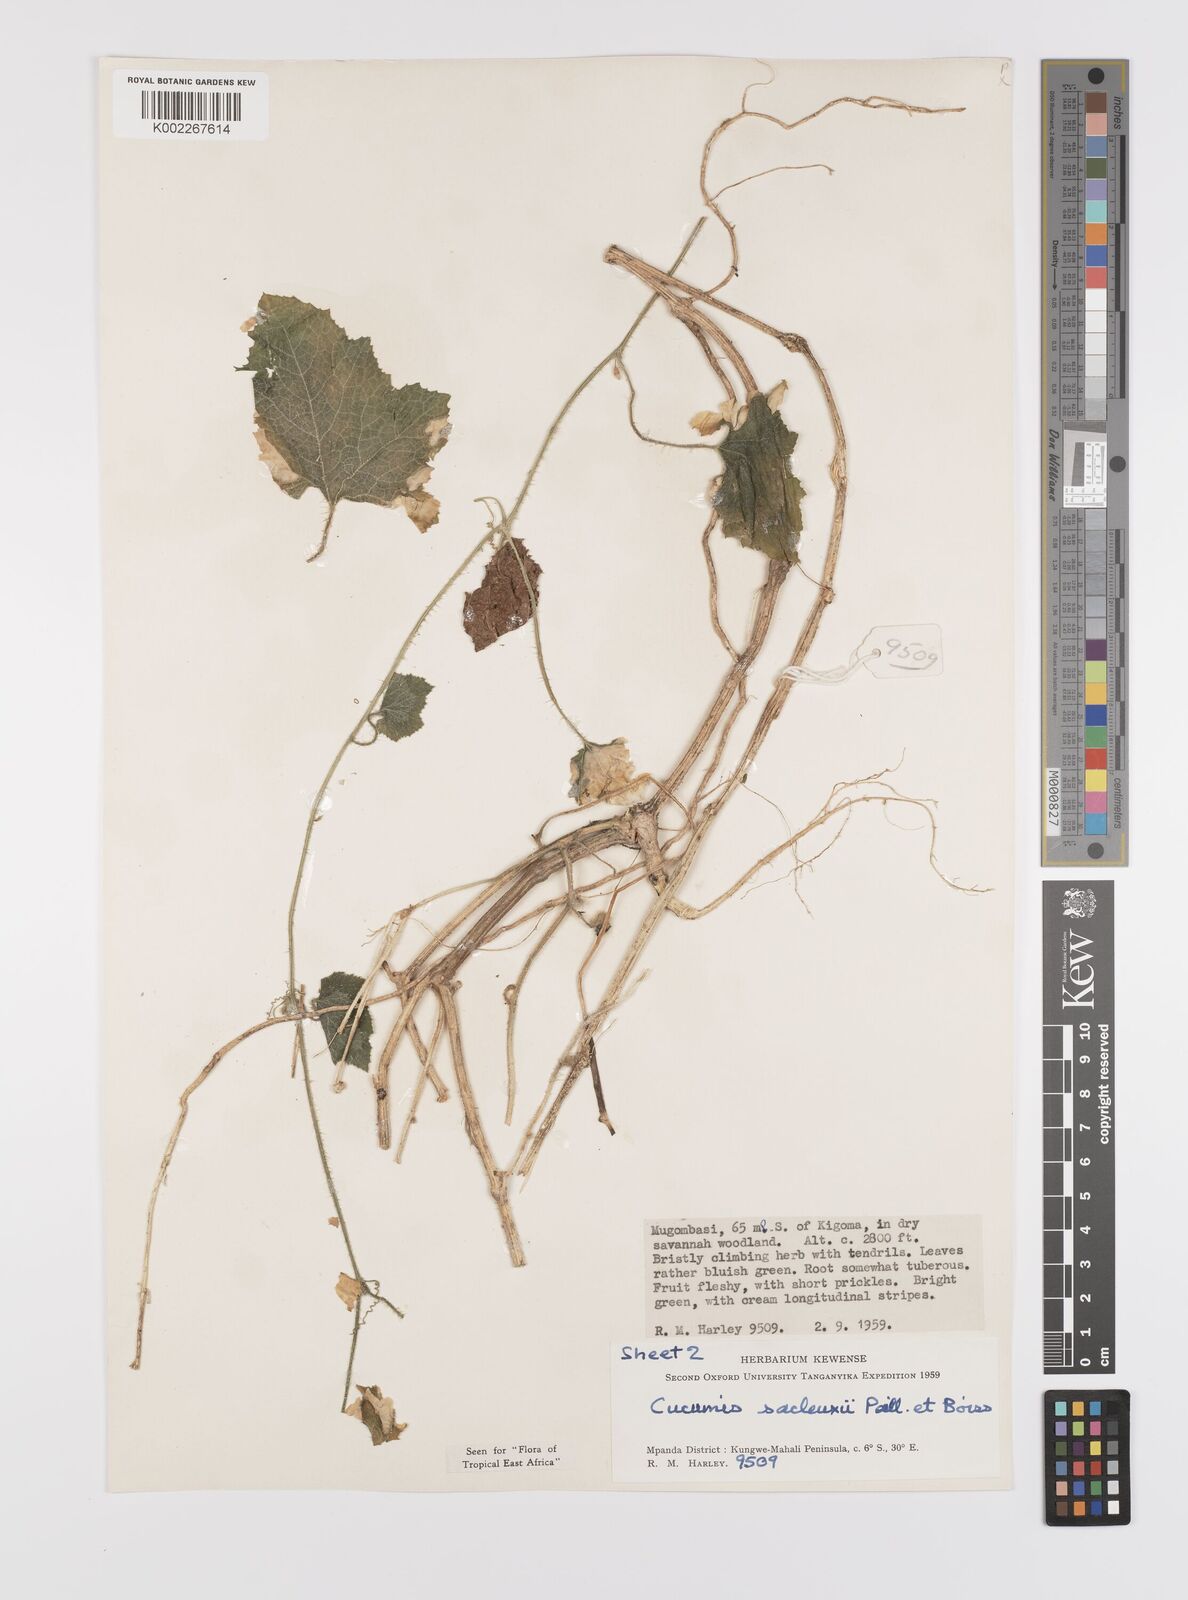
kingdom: Plantae
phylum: Tracheophyta
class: Magnoliopsida
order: Cucurbitales
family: Cucurbitaceae
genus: Cucumis
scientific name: Cucumis sacleuxii
